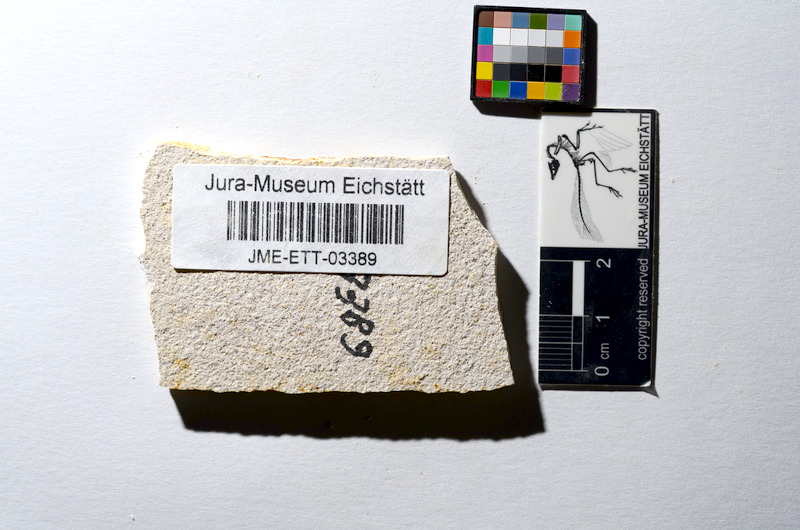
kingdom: Animalia
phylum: Chordata
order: Salmoniformes
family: Orthogonikleithridae
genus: Orthogonikleithrus
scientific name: Orthogonikleithrus hoelli
